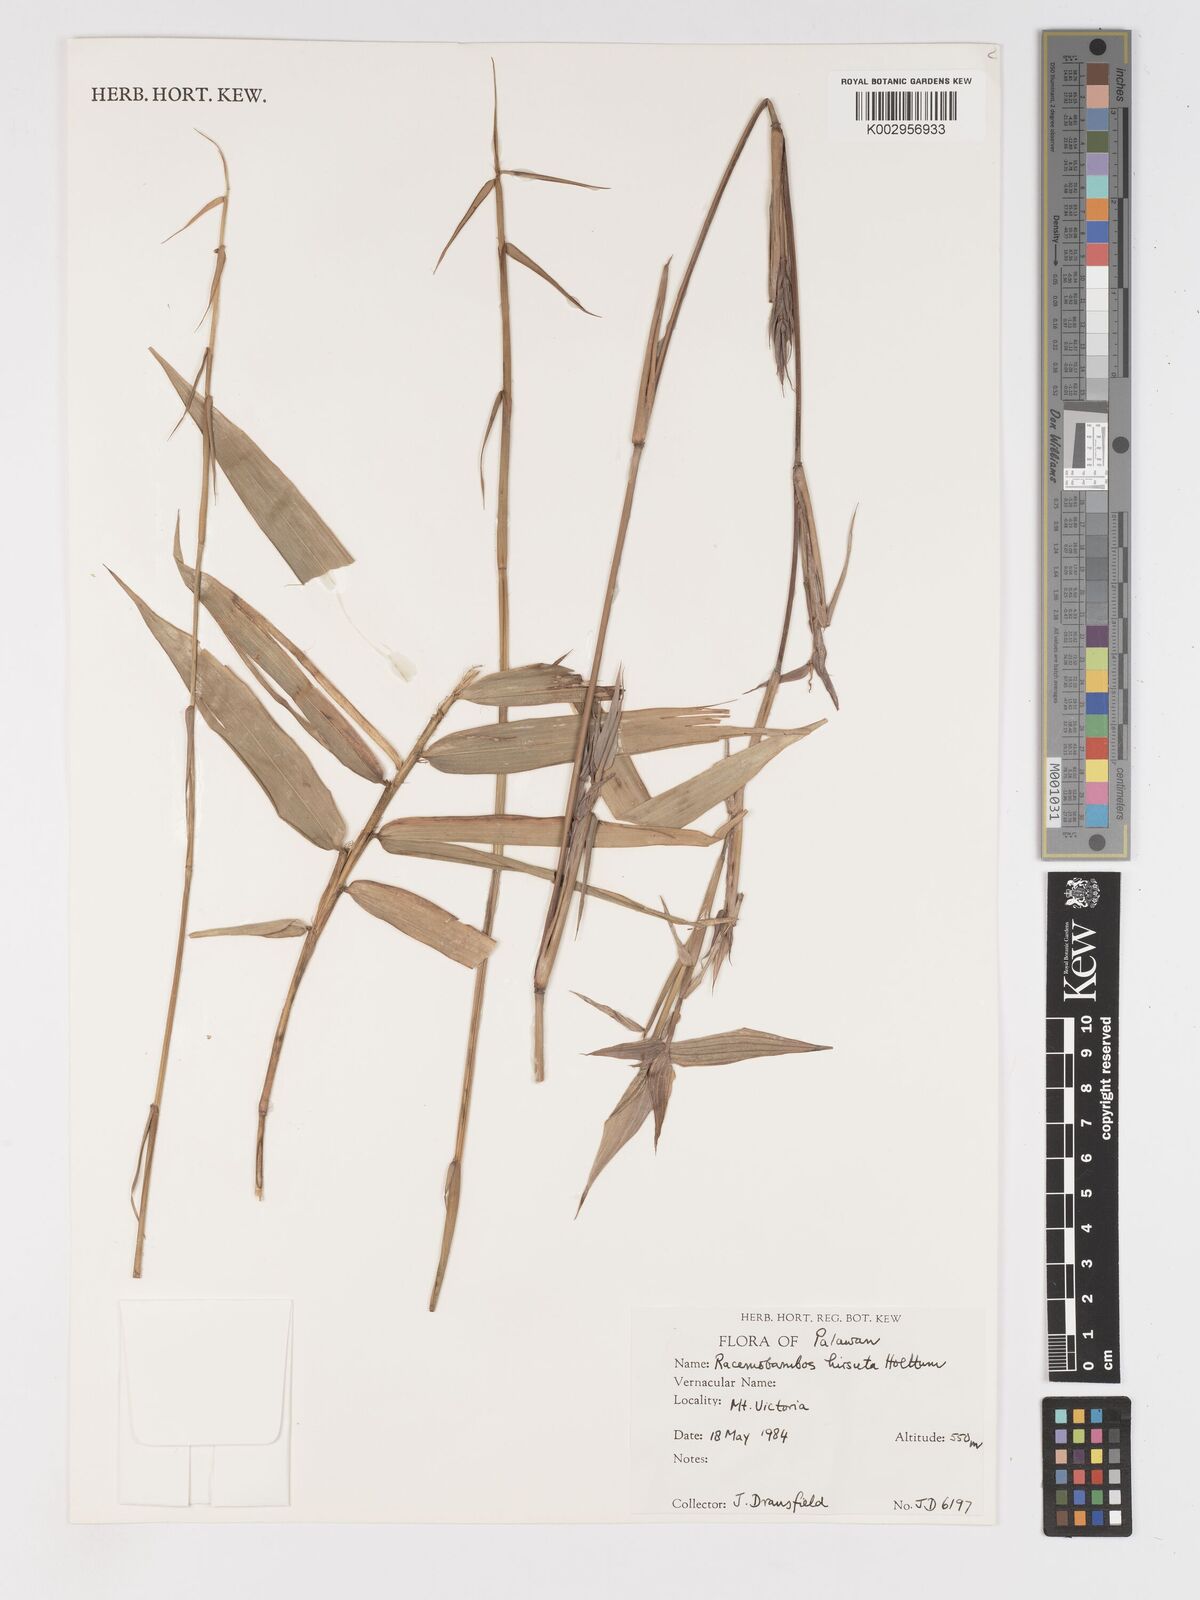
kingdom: Plantae
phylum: Tracheophyta
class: Liliopsida
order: Poales
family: Poaceae
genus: Racemobambos
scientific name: Racemobambos
